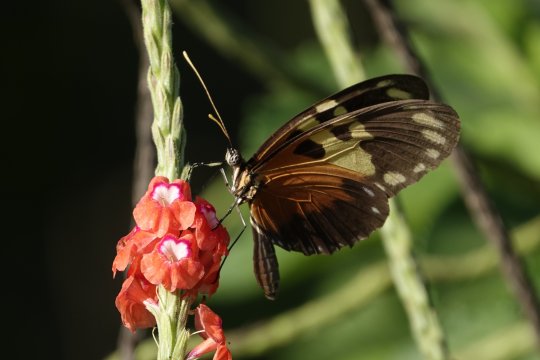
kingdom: Animalia
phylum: Arthropoda
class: Insecta
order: Lepidoptera
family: Nymphalidae
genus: Heliconius
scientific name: Heliconius hecale
